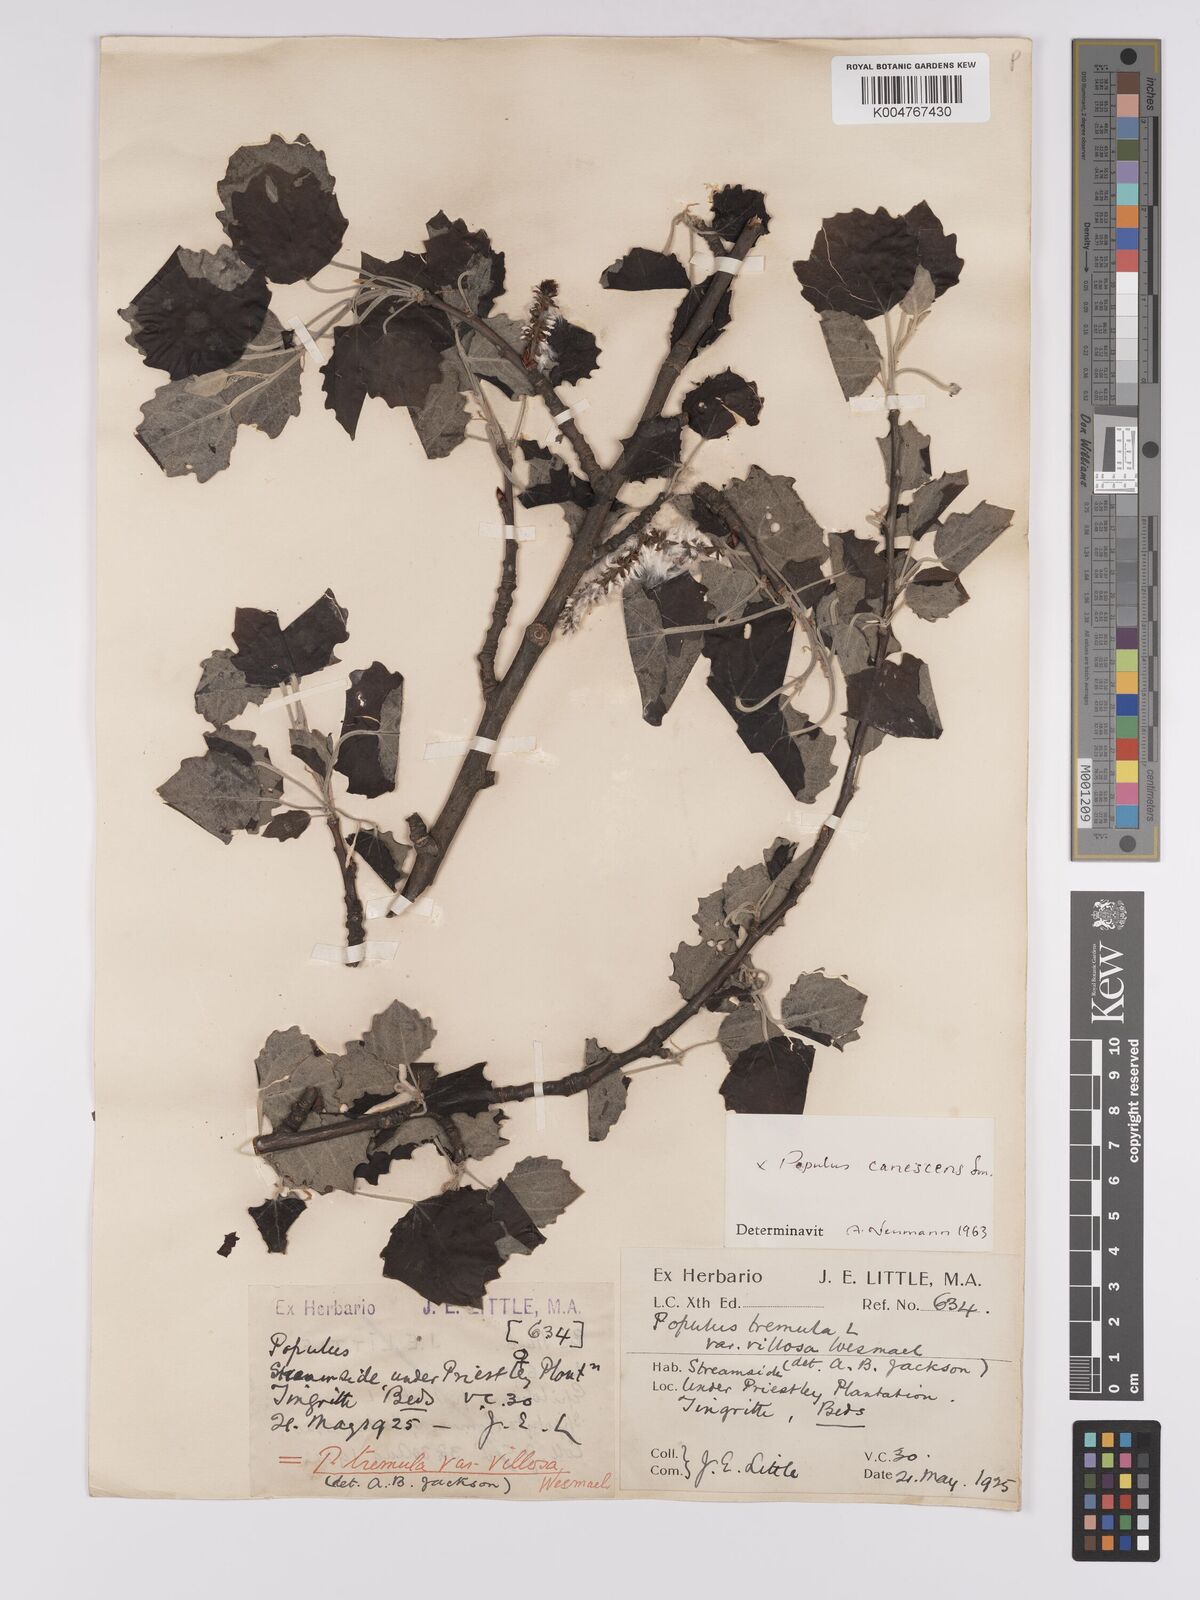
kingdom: Plantae
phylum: Tracheophyta
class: Magnoliopsida
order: Malpighiales
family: Salicaceae
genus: Populus
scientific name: Populus canescens
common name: Gray poplar
